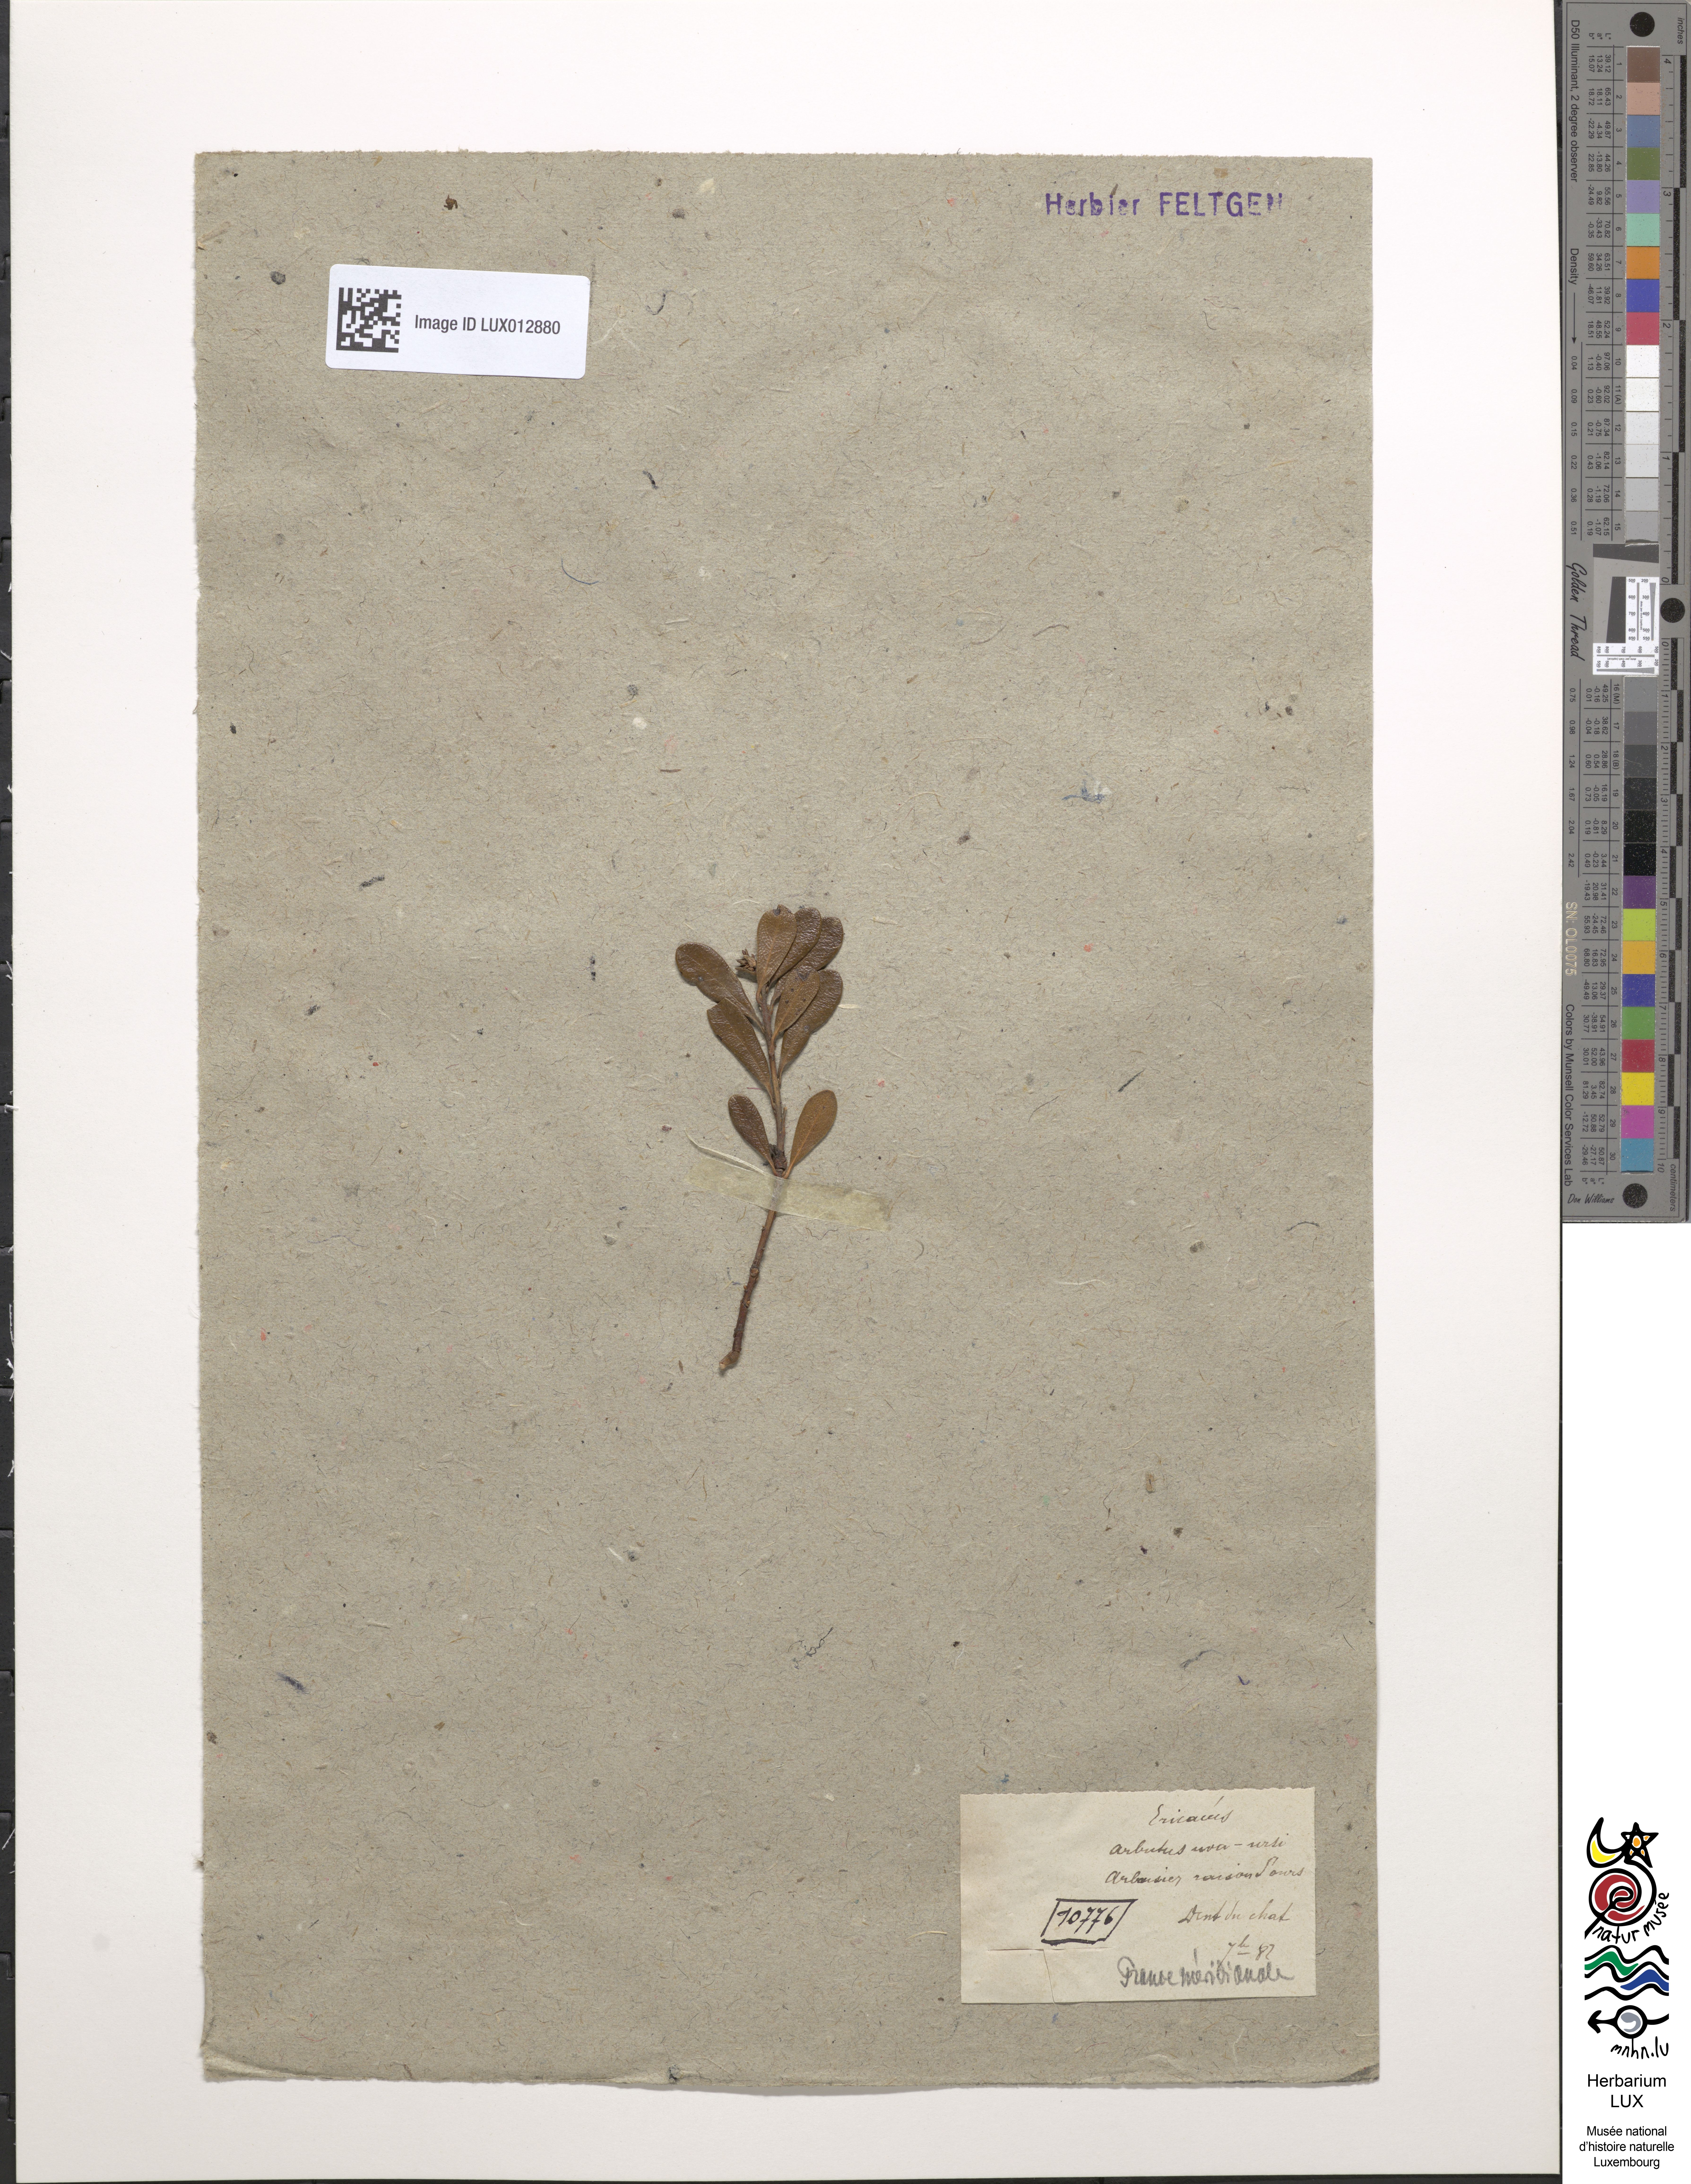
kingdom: Plantae
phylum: Tracheophyta
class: Magnoliopsida
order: Ericales
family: Ericaceae
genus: Arctostaphylos
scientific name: Arctostaphylos uva-ursi
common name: Bearberry
